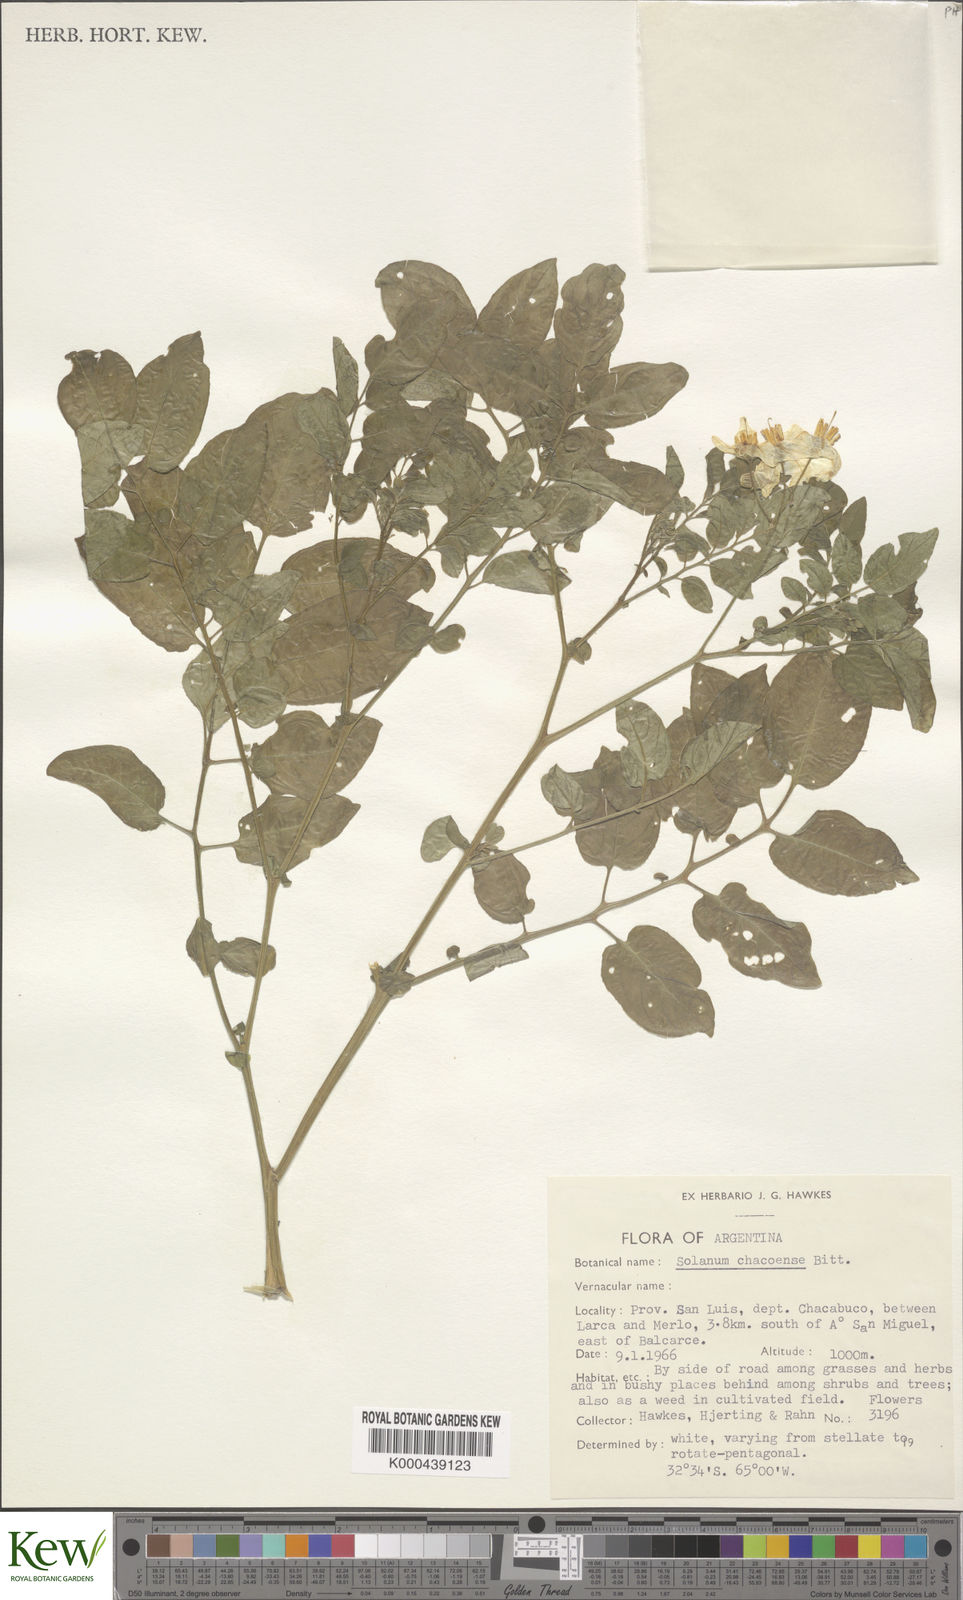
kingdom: Plantae
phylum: Tracheophyta
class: Magnoliopsida
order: Solanales
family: Solanaceae
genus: Solanum
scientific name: Solanum chacoense
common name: Chaco potato
